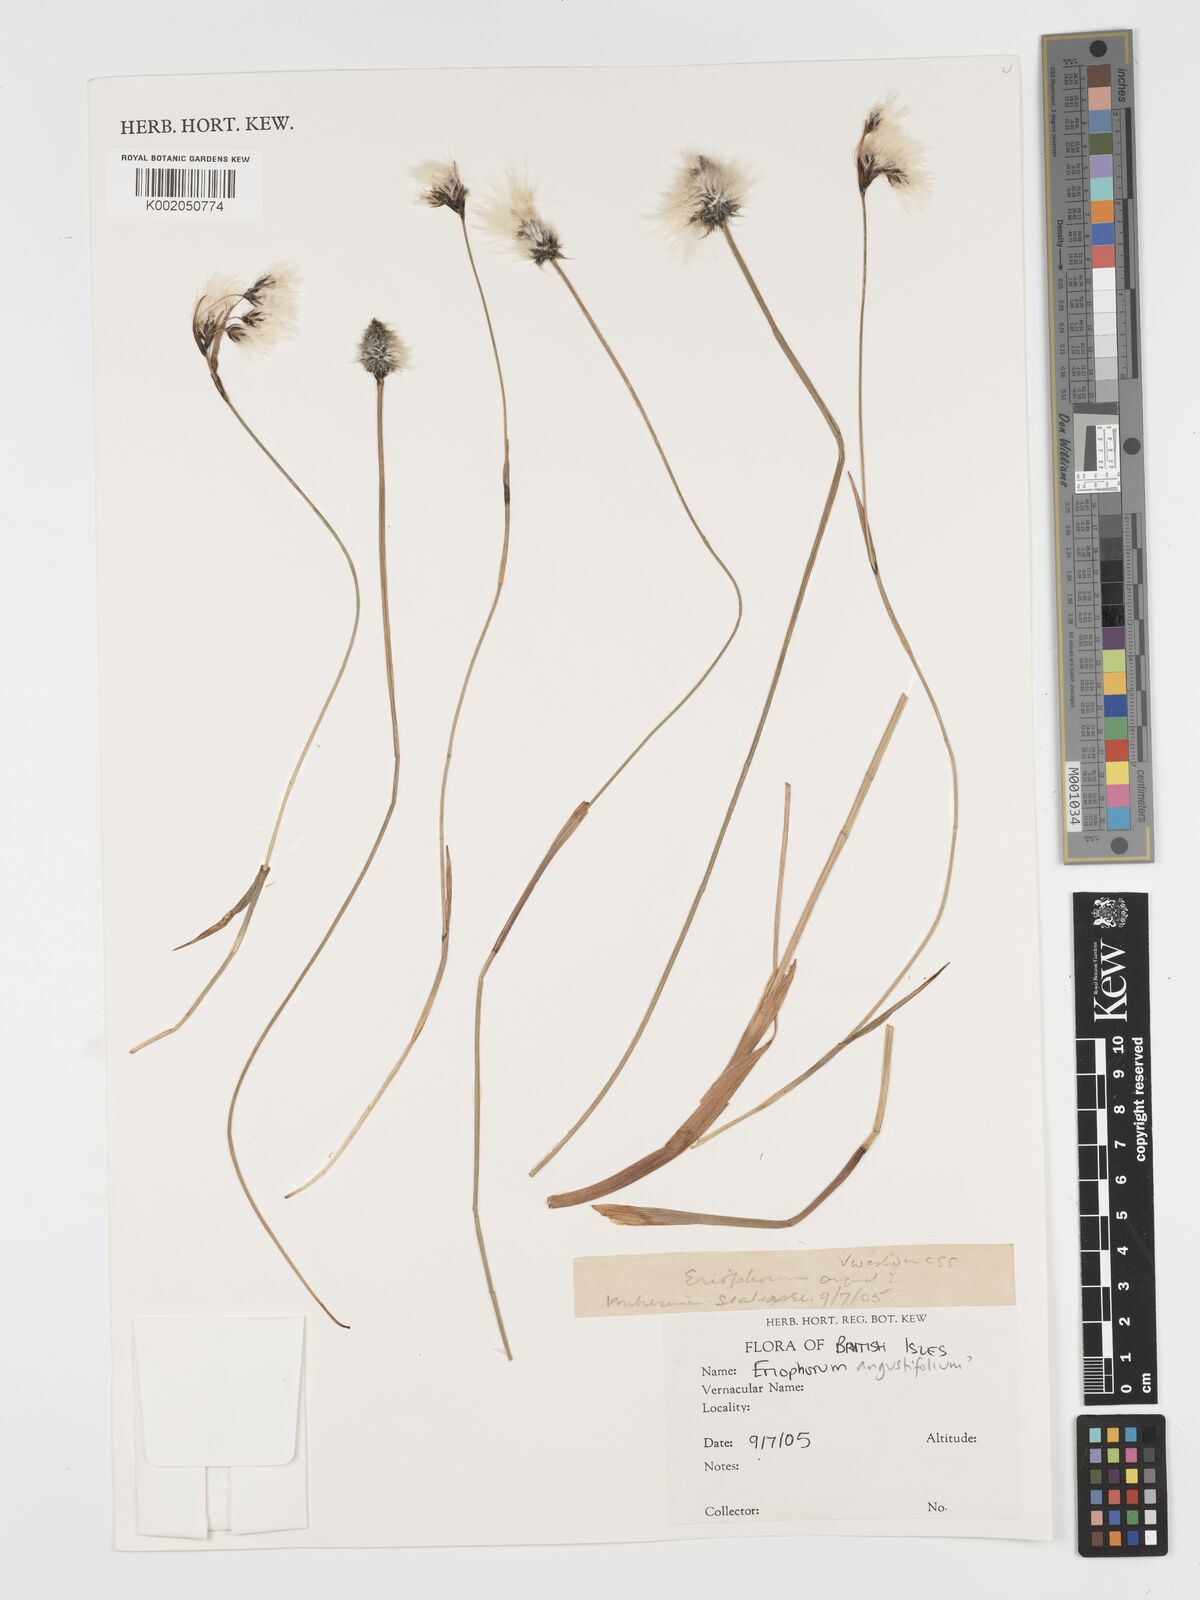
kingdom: Plantae
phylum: Tracheophyta
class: Liliopsida
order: Poales
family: Cyperaceae
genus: Eriophorum
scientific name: Eriophorum angustifolium
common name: Common cottongrass
